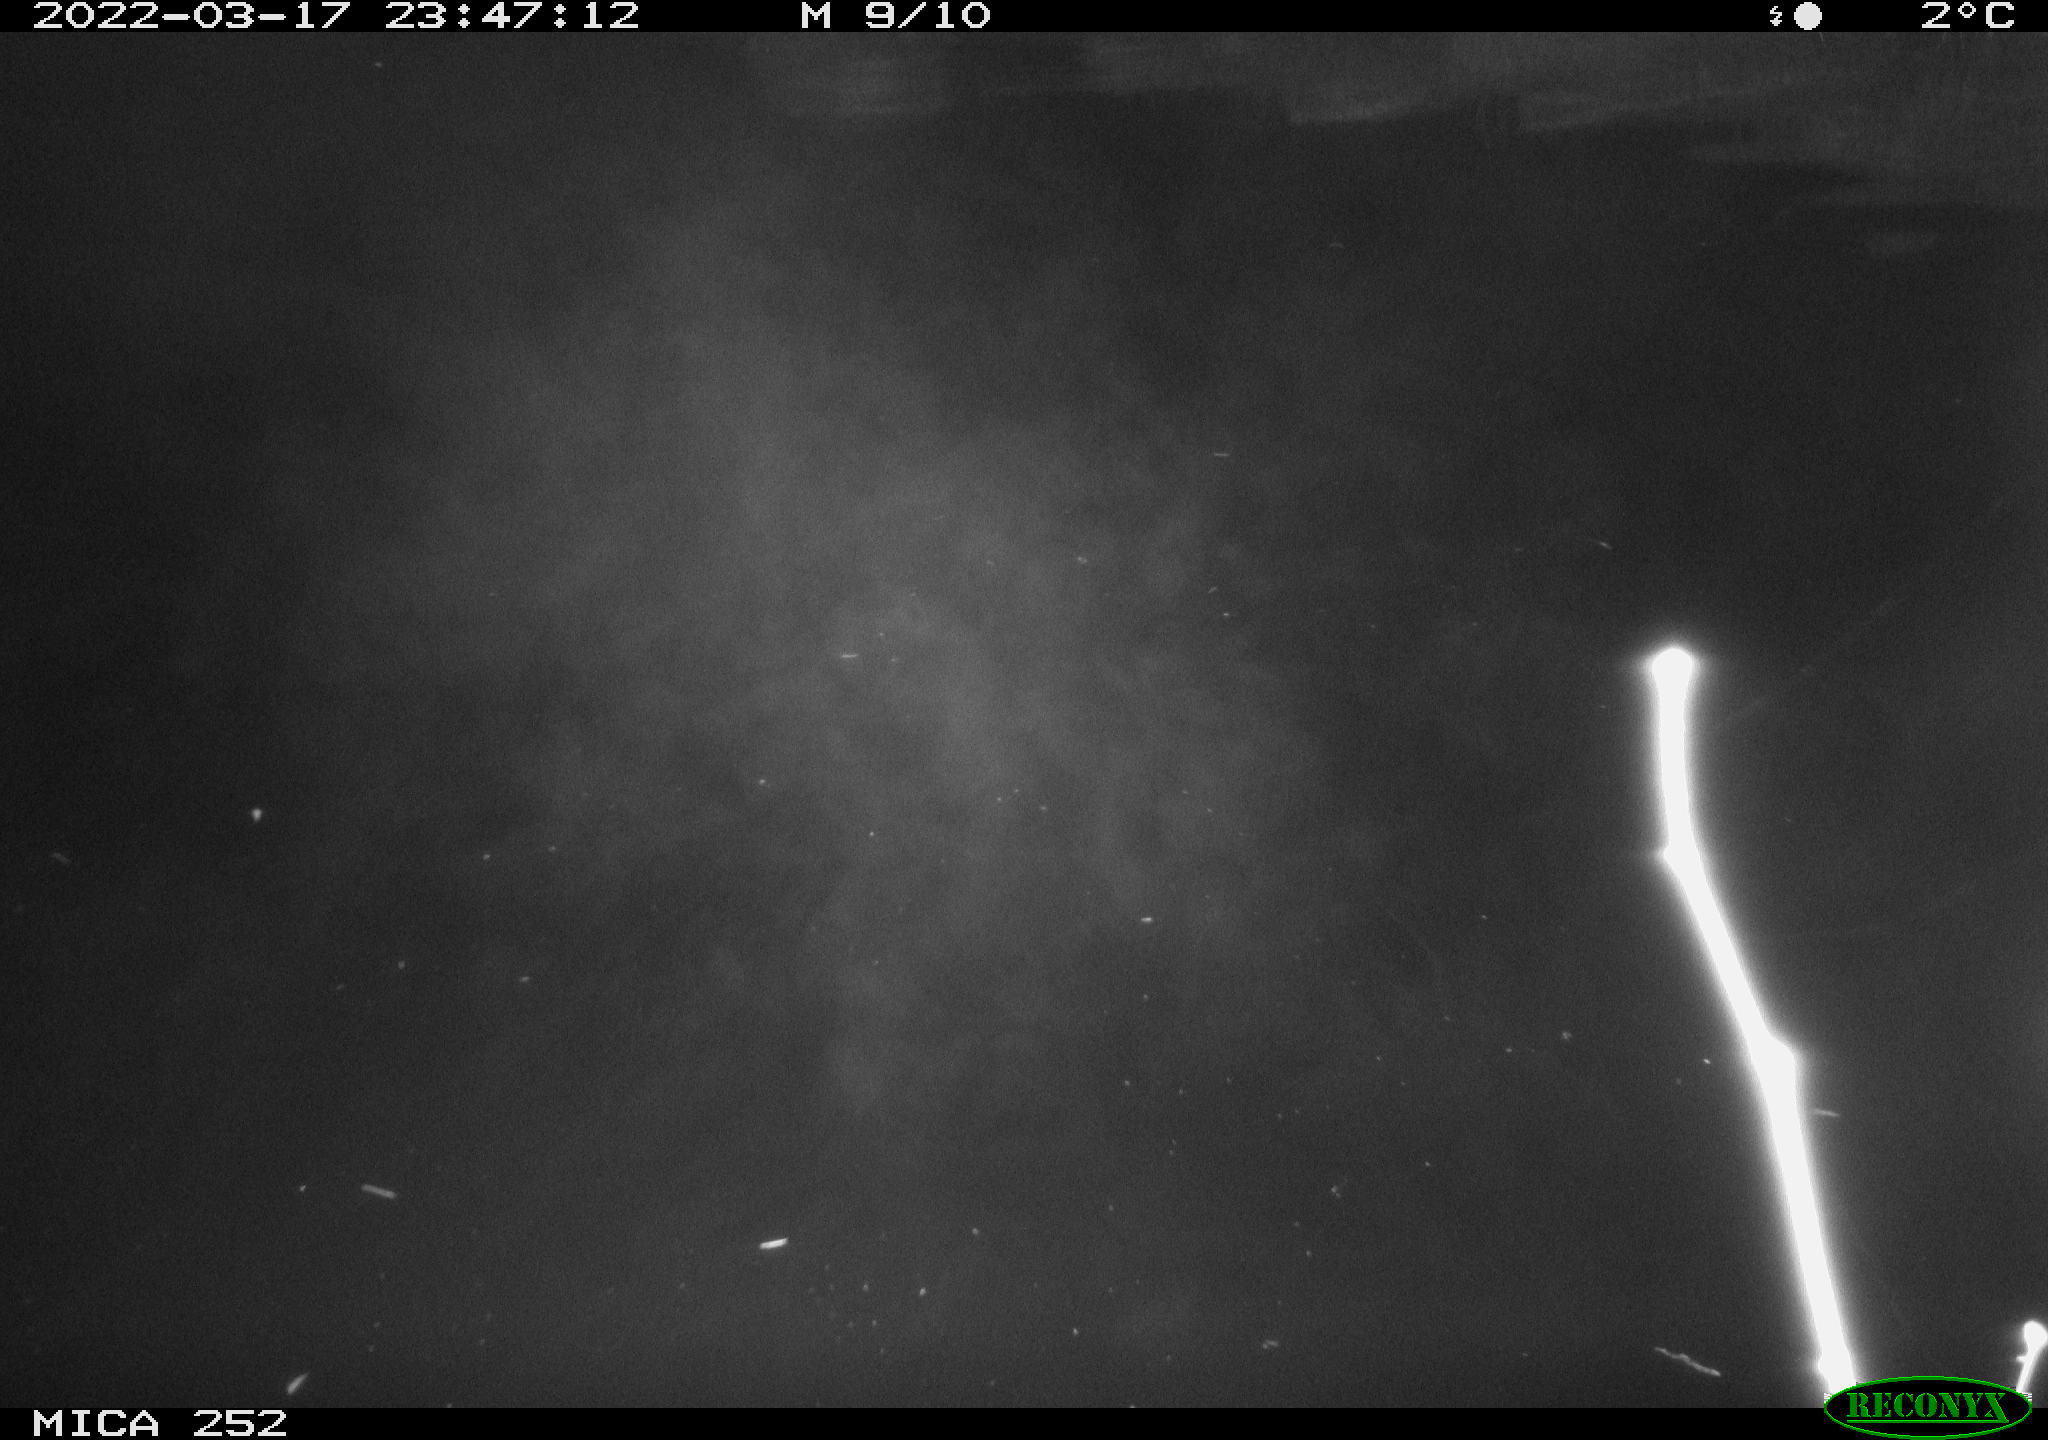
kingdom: Animalia
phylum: Chordata
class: Mammalia
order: Rodentia
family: Castoridae
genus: Castor
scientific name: Castor fiber
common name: Eurasian beaver
